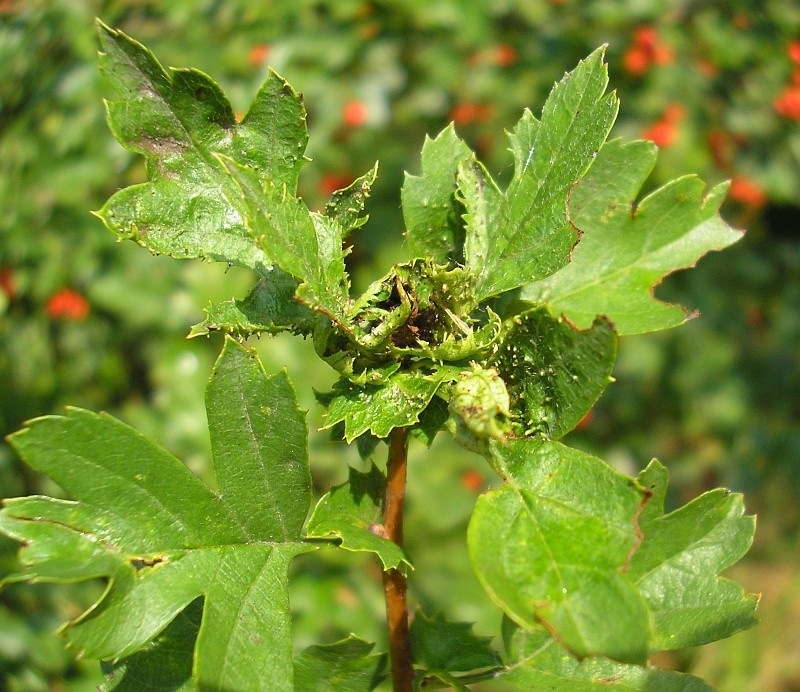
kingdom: Animalia
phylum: Arthropoda
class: Insecta
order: Diptera
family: Cecidomyiidae
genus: Dasineura
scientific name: Dasineura crataegi
